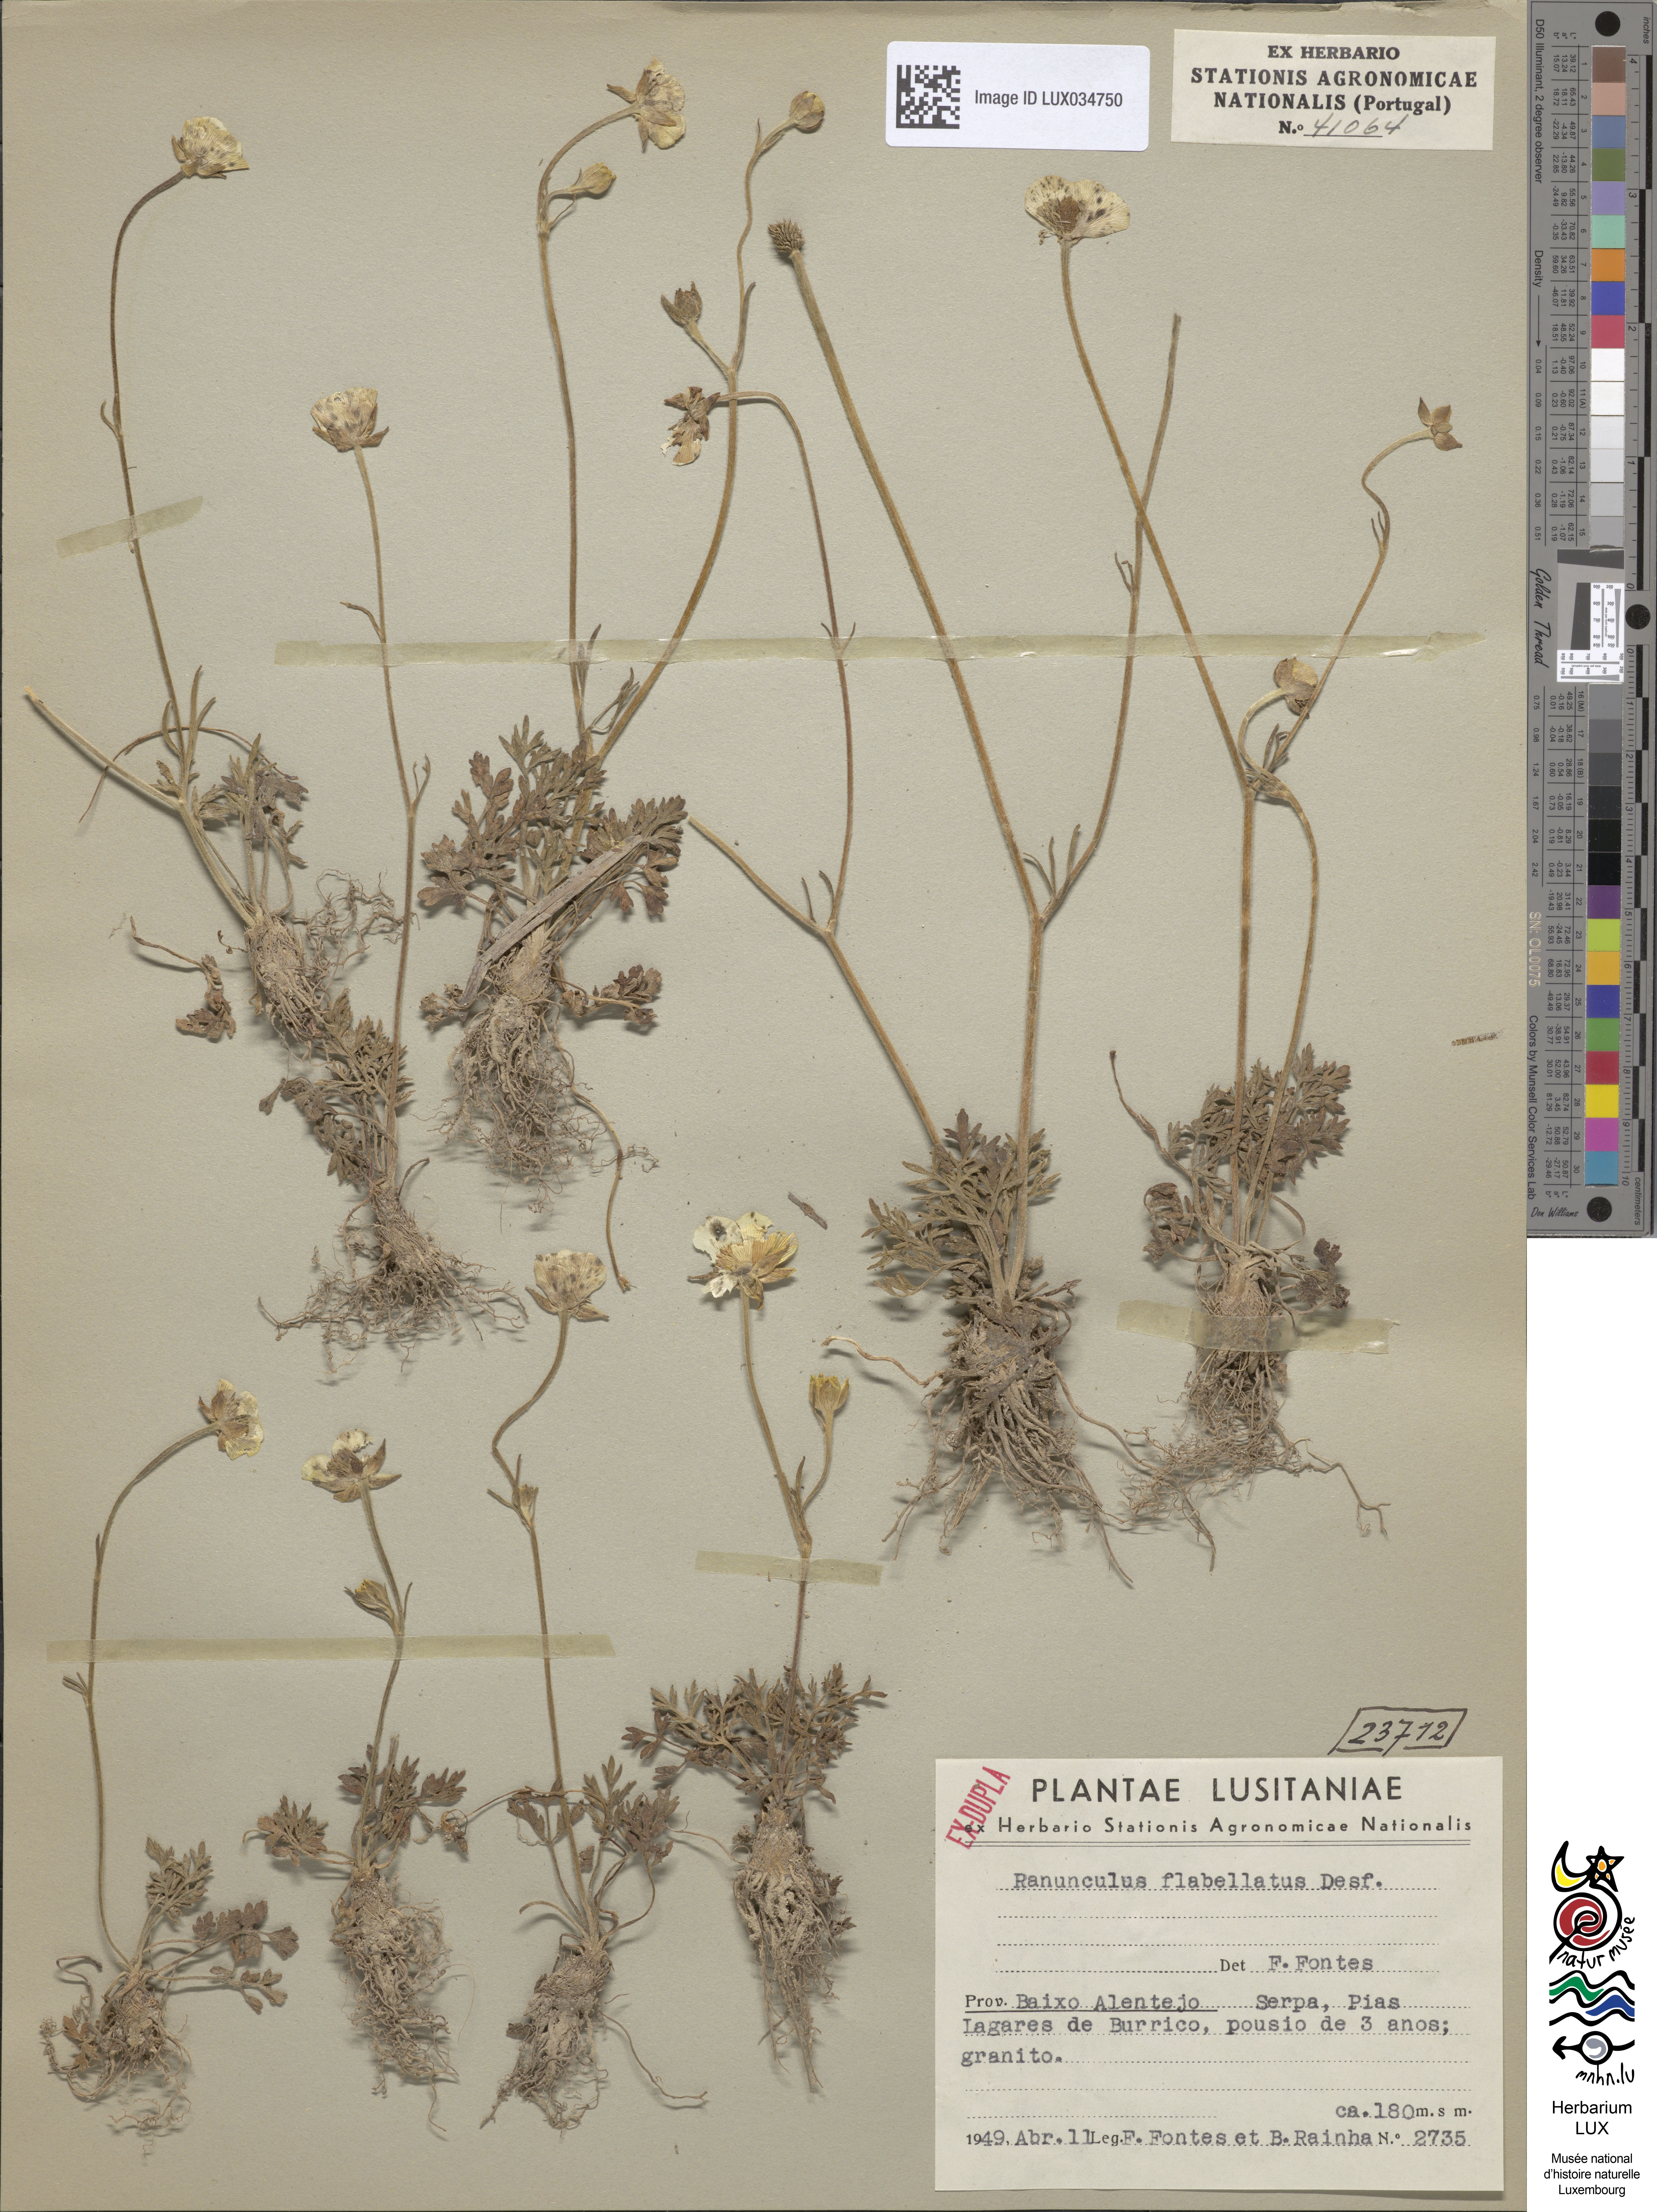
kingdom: Plantae
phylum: Tracheophyta
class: Magnoliopsida
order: Ranunculales
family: Ranunculaceae
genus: Ranunculus
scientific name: Ranunculus paludosus
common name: Jersey buttercup
